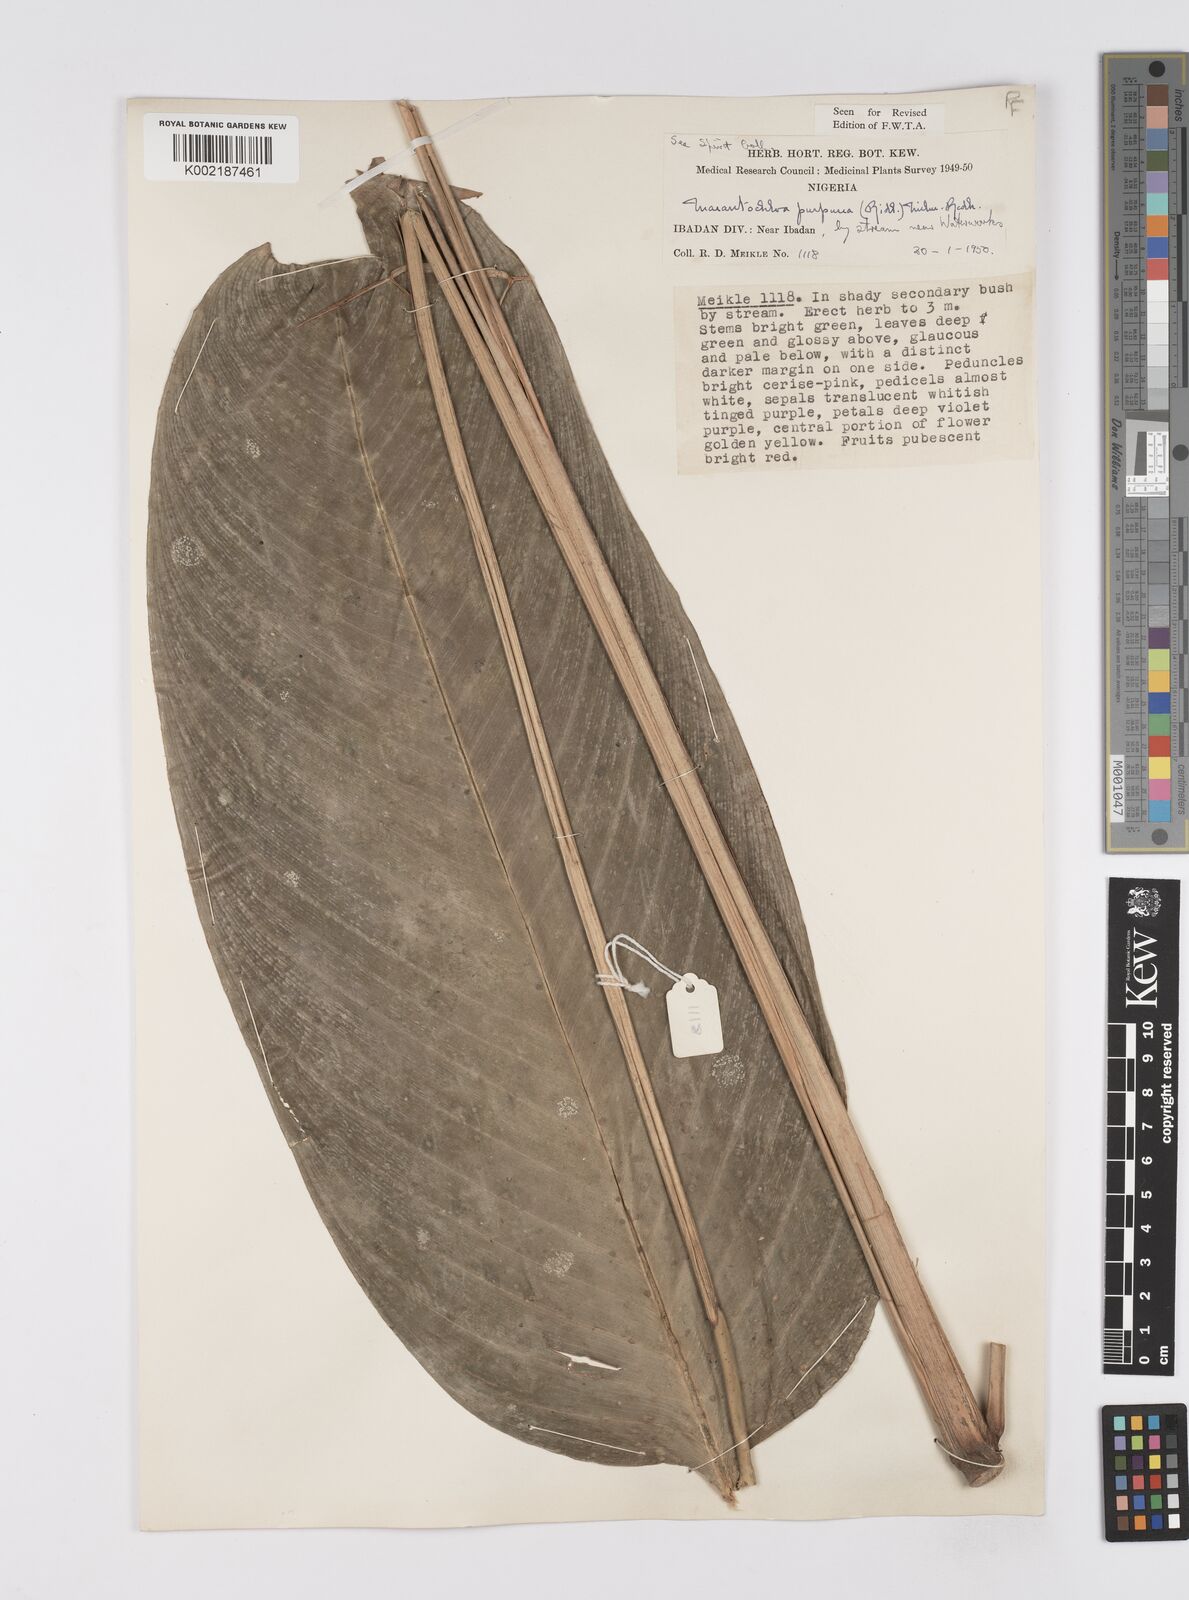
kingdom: Plantae
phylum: Tracheophyta
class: Liliopsida
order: Zingiberales
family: Marantaceae
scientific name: Marantaceae
